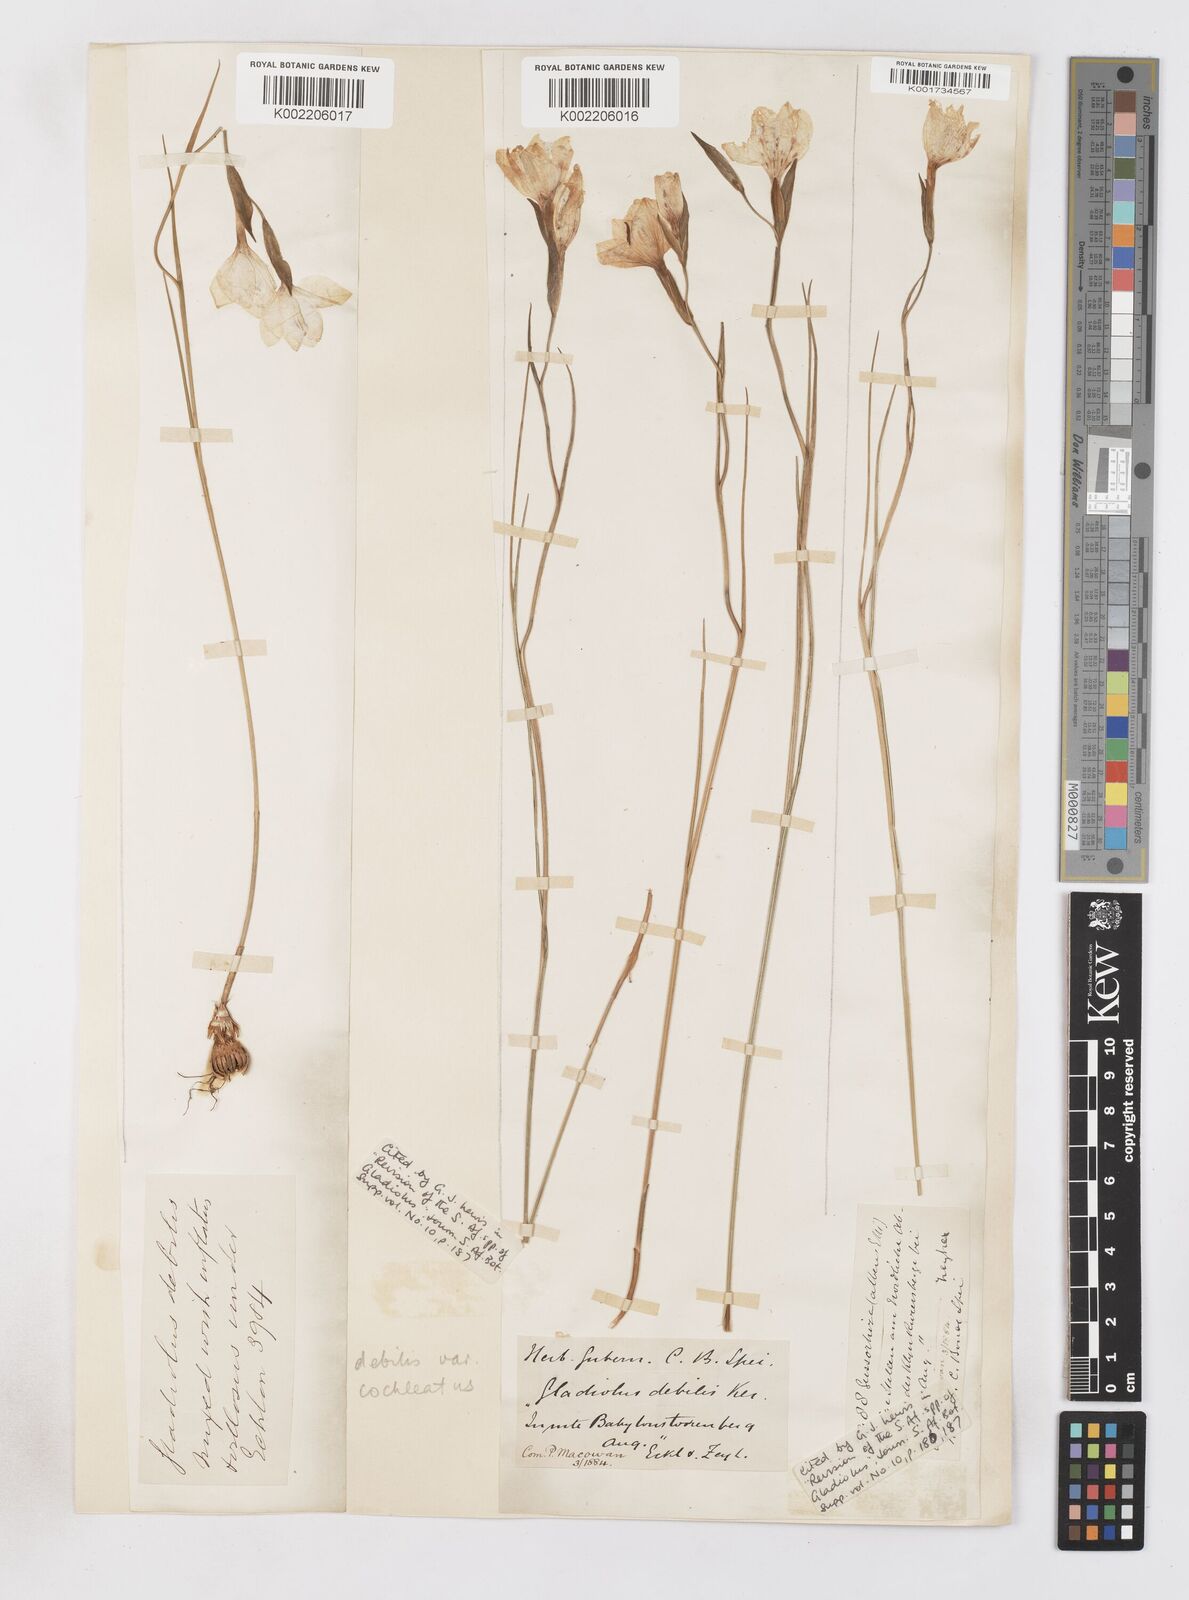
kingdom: Plantae
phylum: Tracheophyta
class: Liliopsida
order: Asparagales
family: Iridaceae
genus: Gladiolus
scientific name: Gladiolus debilis
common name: Painted-lady
